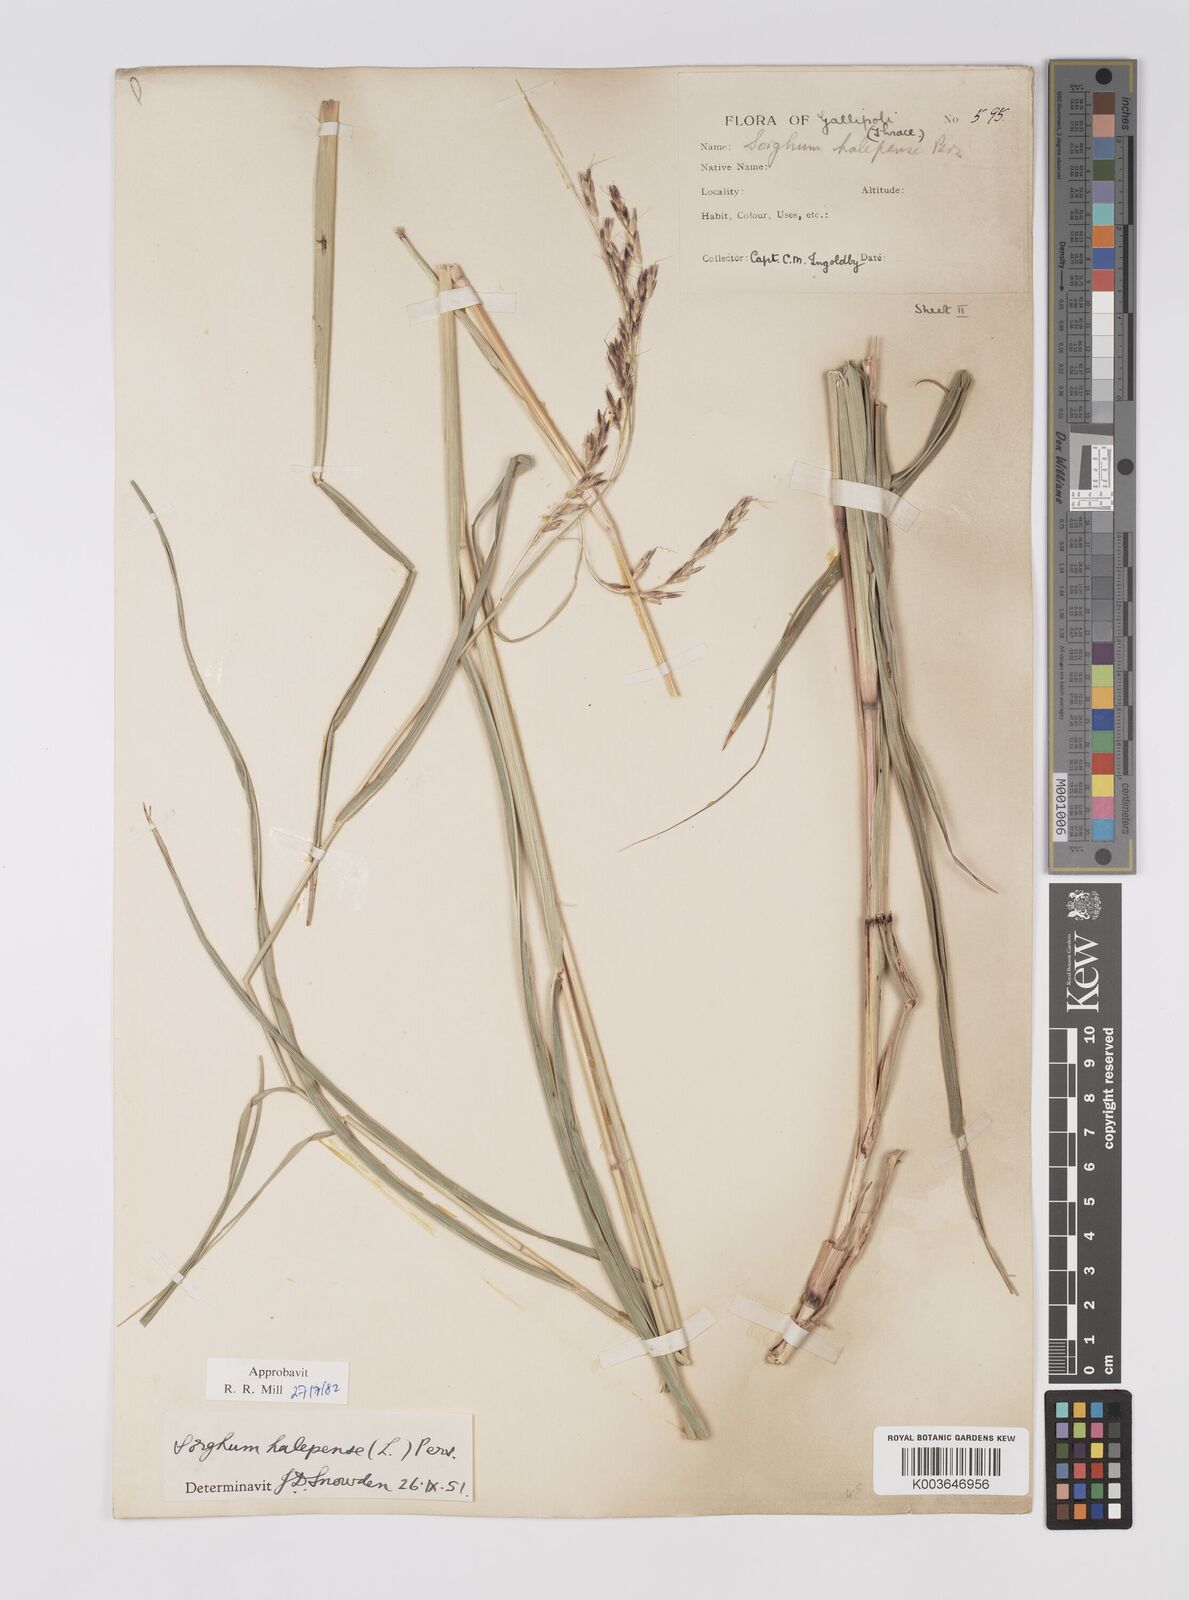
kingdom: Plantae
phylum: Tracheophyta
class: Liliopsida
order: Poales
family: Poaceae
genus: Sorghum
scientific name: Sorghum halepense
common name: Johnson-grass
